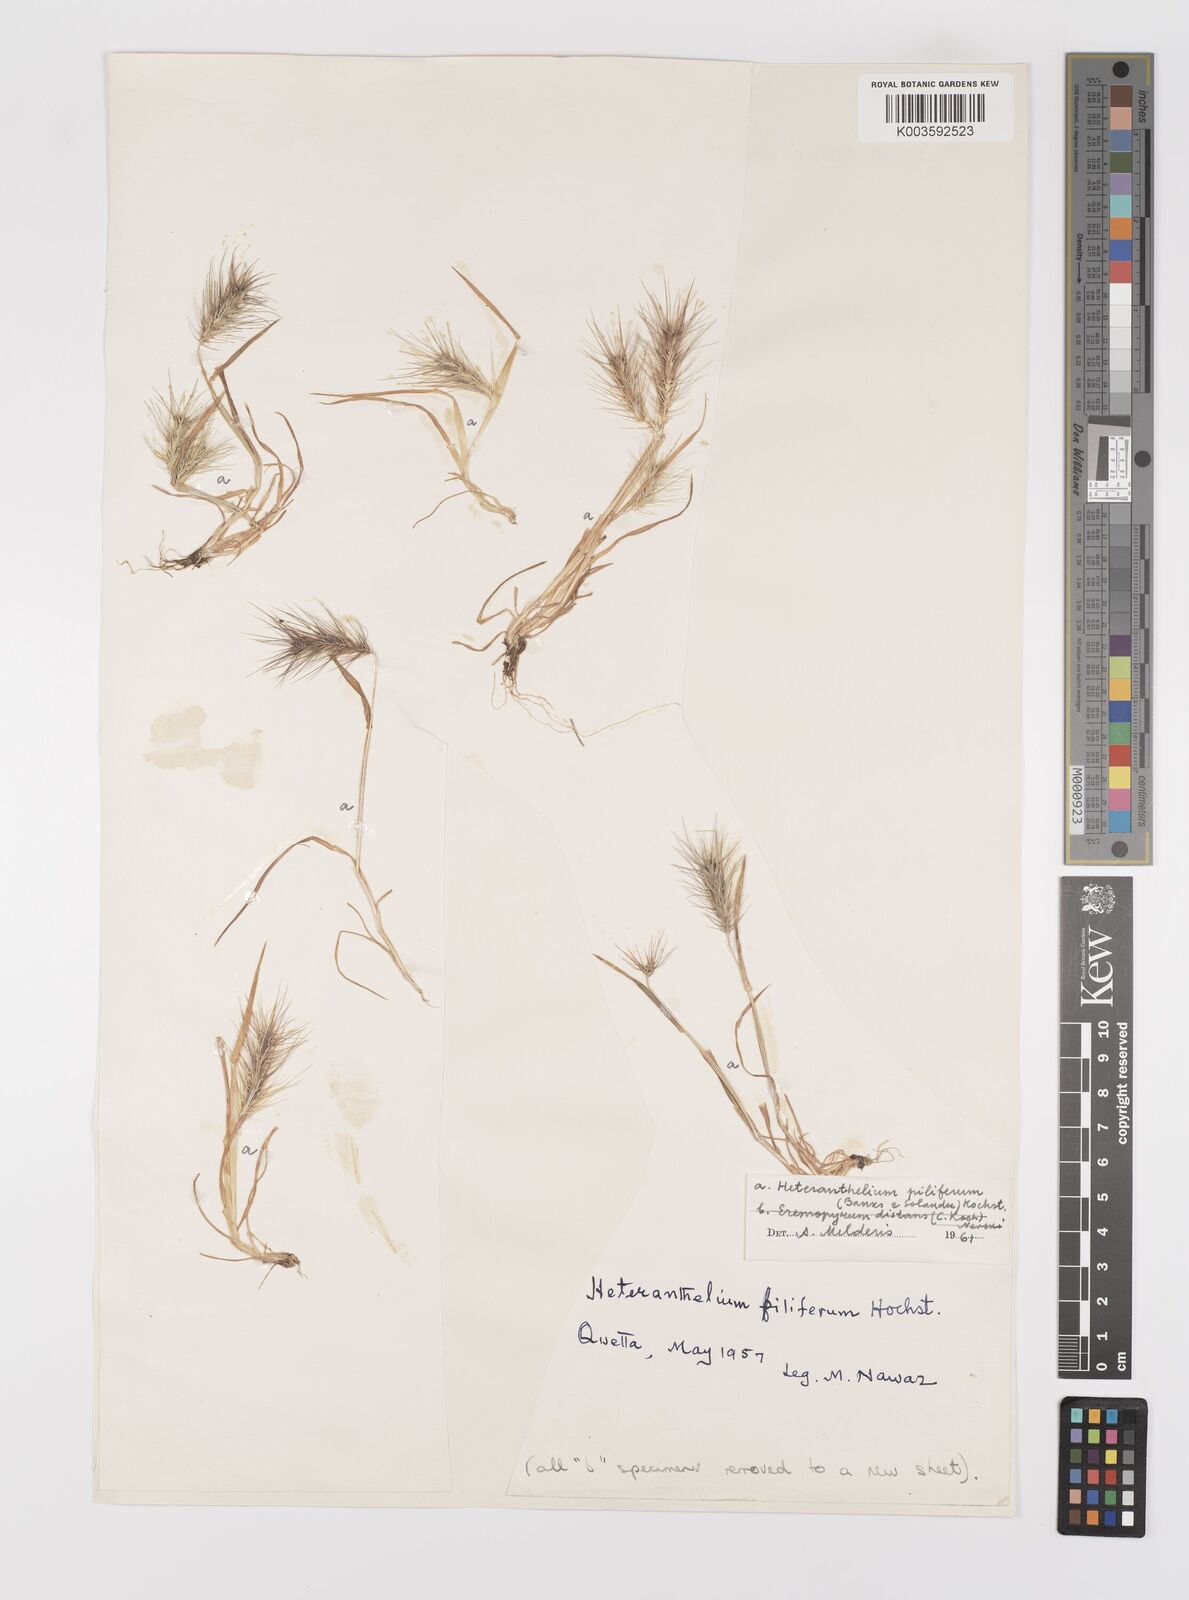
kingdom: Plantae
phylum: Tracheophyta
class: Liliopsida
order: Poales
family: Poaceae
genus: Heteranthelium
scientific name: Heteranthelium piliferum
